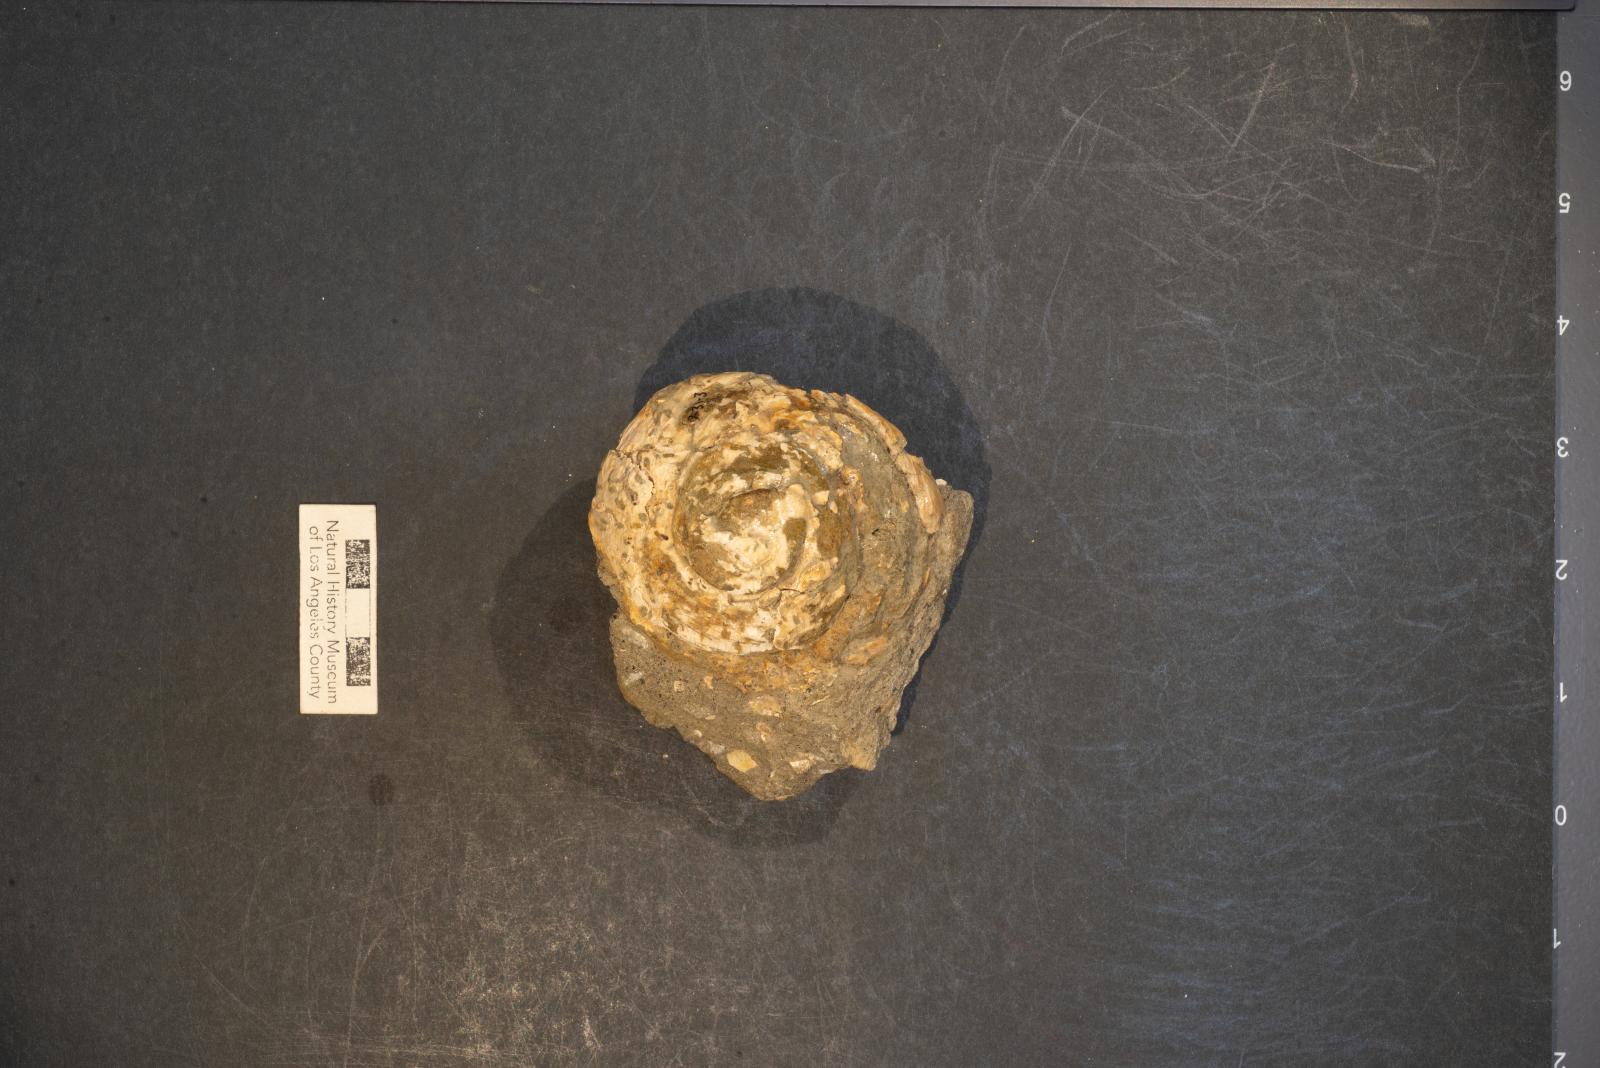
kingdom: Animalia
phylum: Mollusca
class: Gastropoda
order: Littorinimorpha
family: Xenophoridae
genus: Xenophora
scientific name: Xenophora hermax
